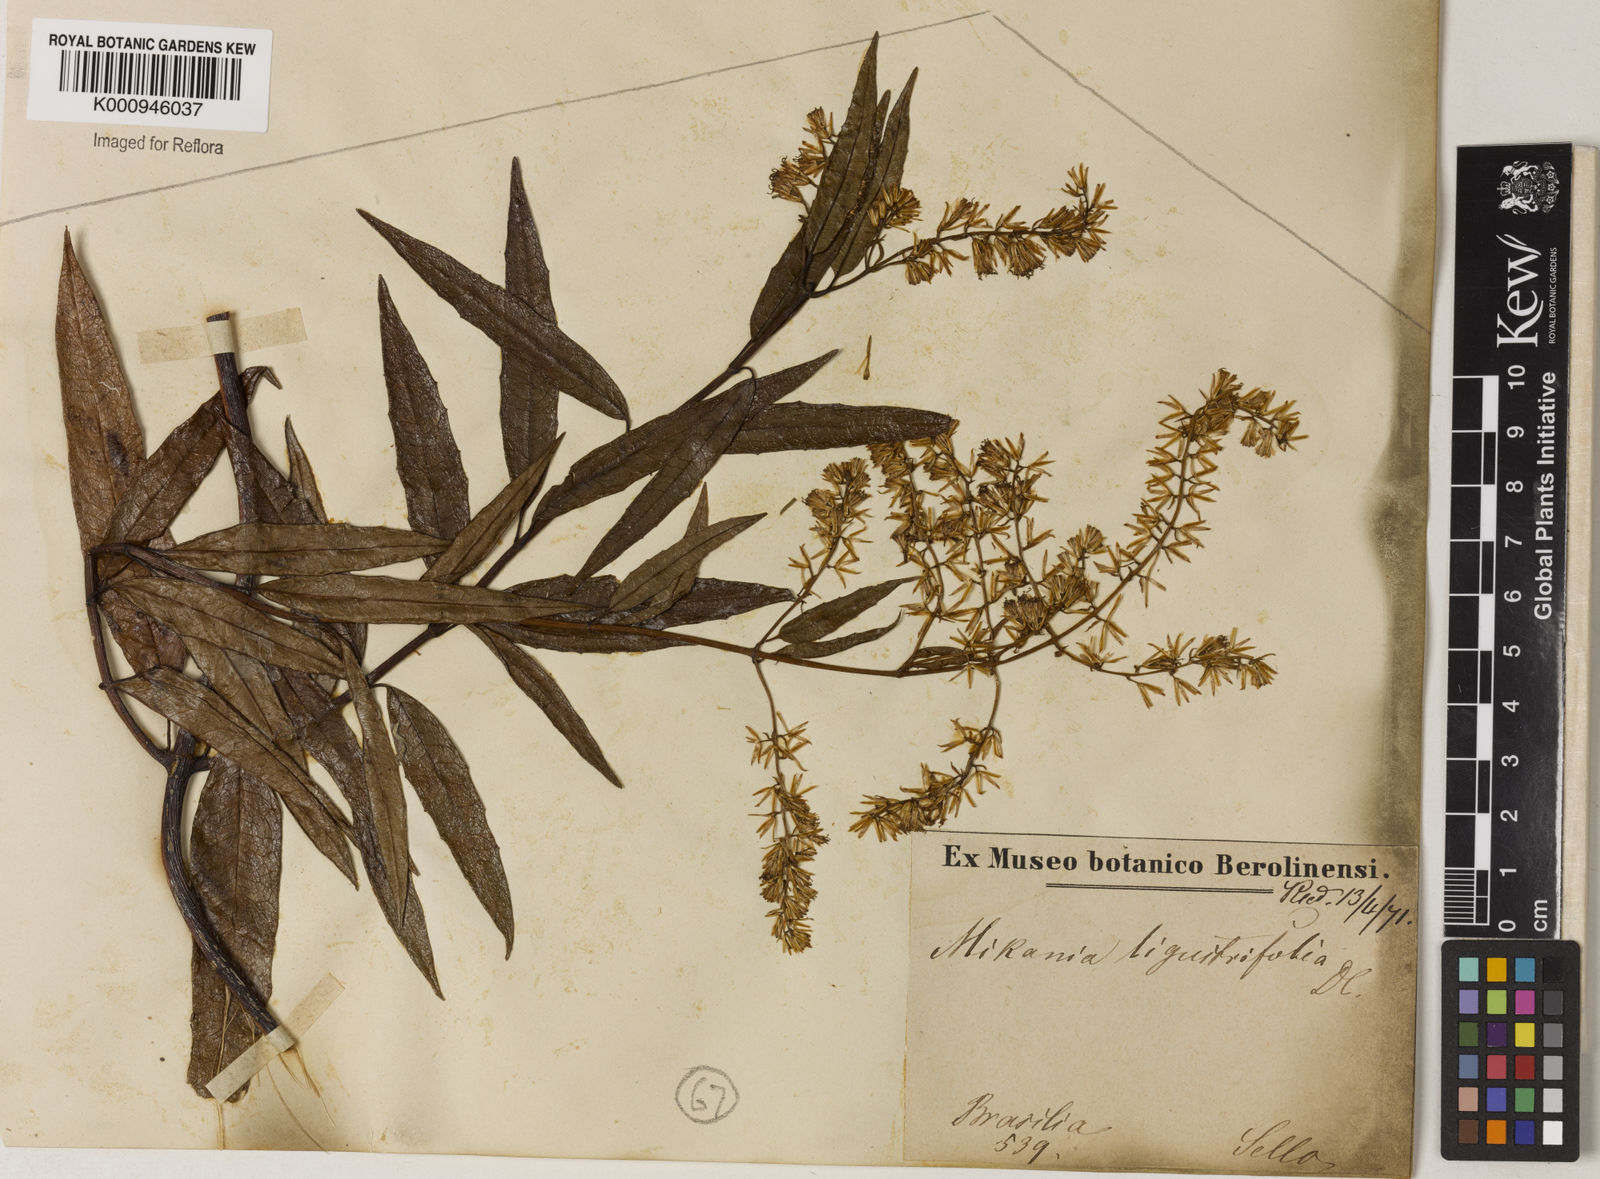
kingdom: Plantae
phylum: Tracheophyta
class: Magnoliopsida
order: Asterales
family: Asteraceae
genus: Mikania
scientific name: Mikania ligustrifolia
